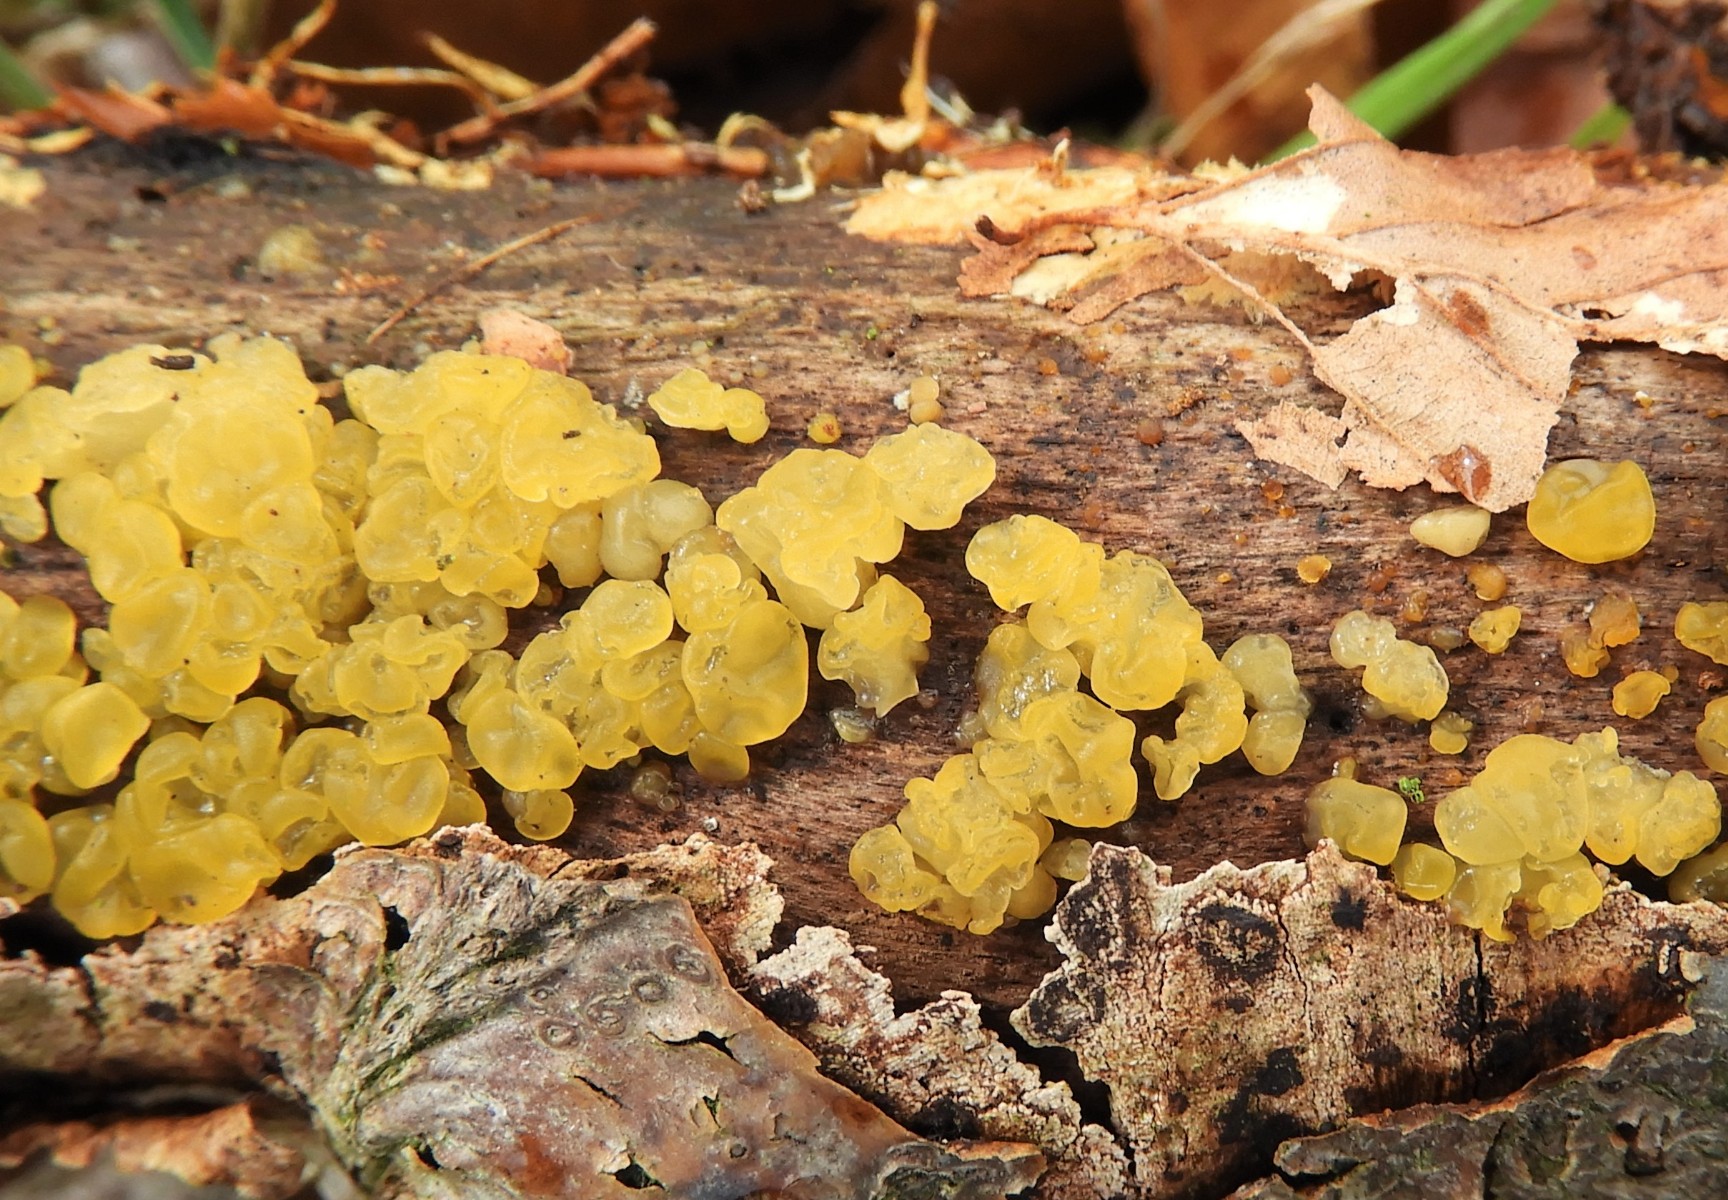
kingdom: Fungi
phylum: Basidiomycota
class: Dacrymycetes
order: Dacrymycetales
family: Dacrymycetaceae
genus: Dacrymyces
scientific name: Dacrymyces
